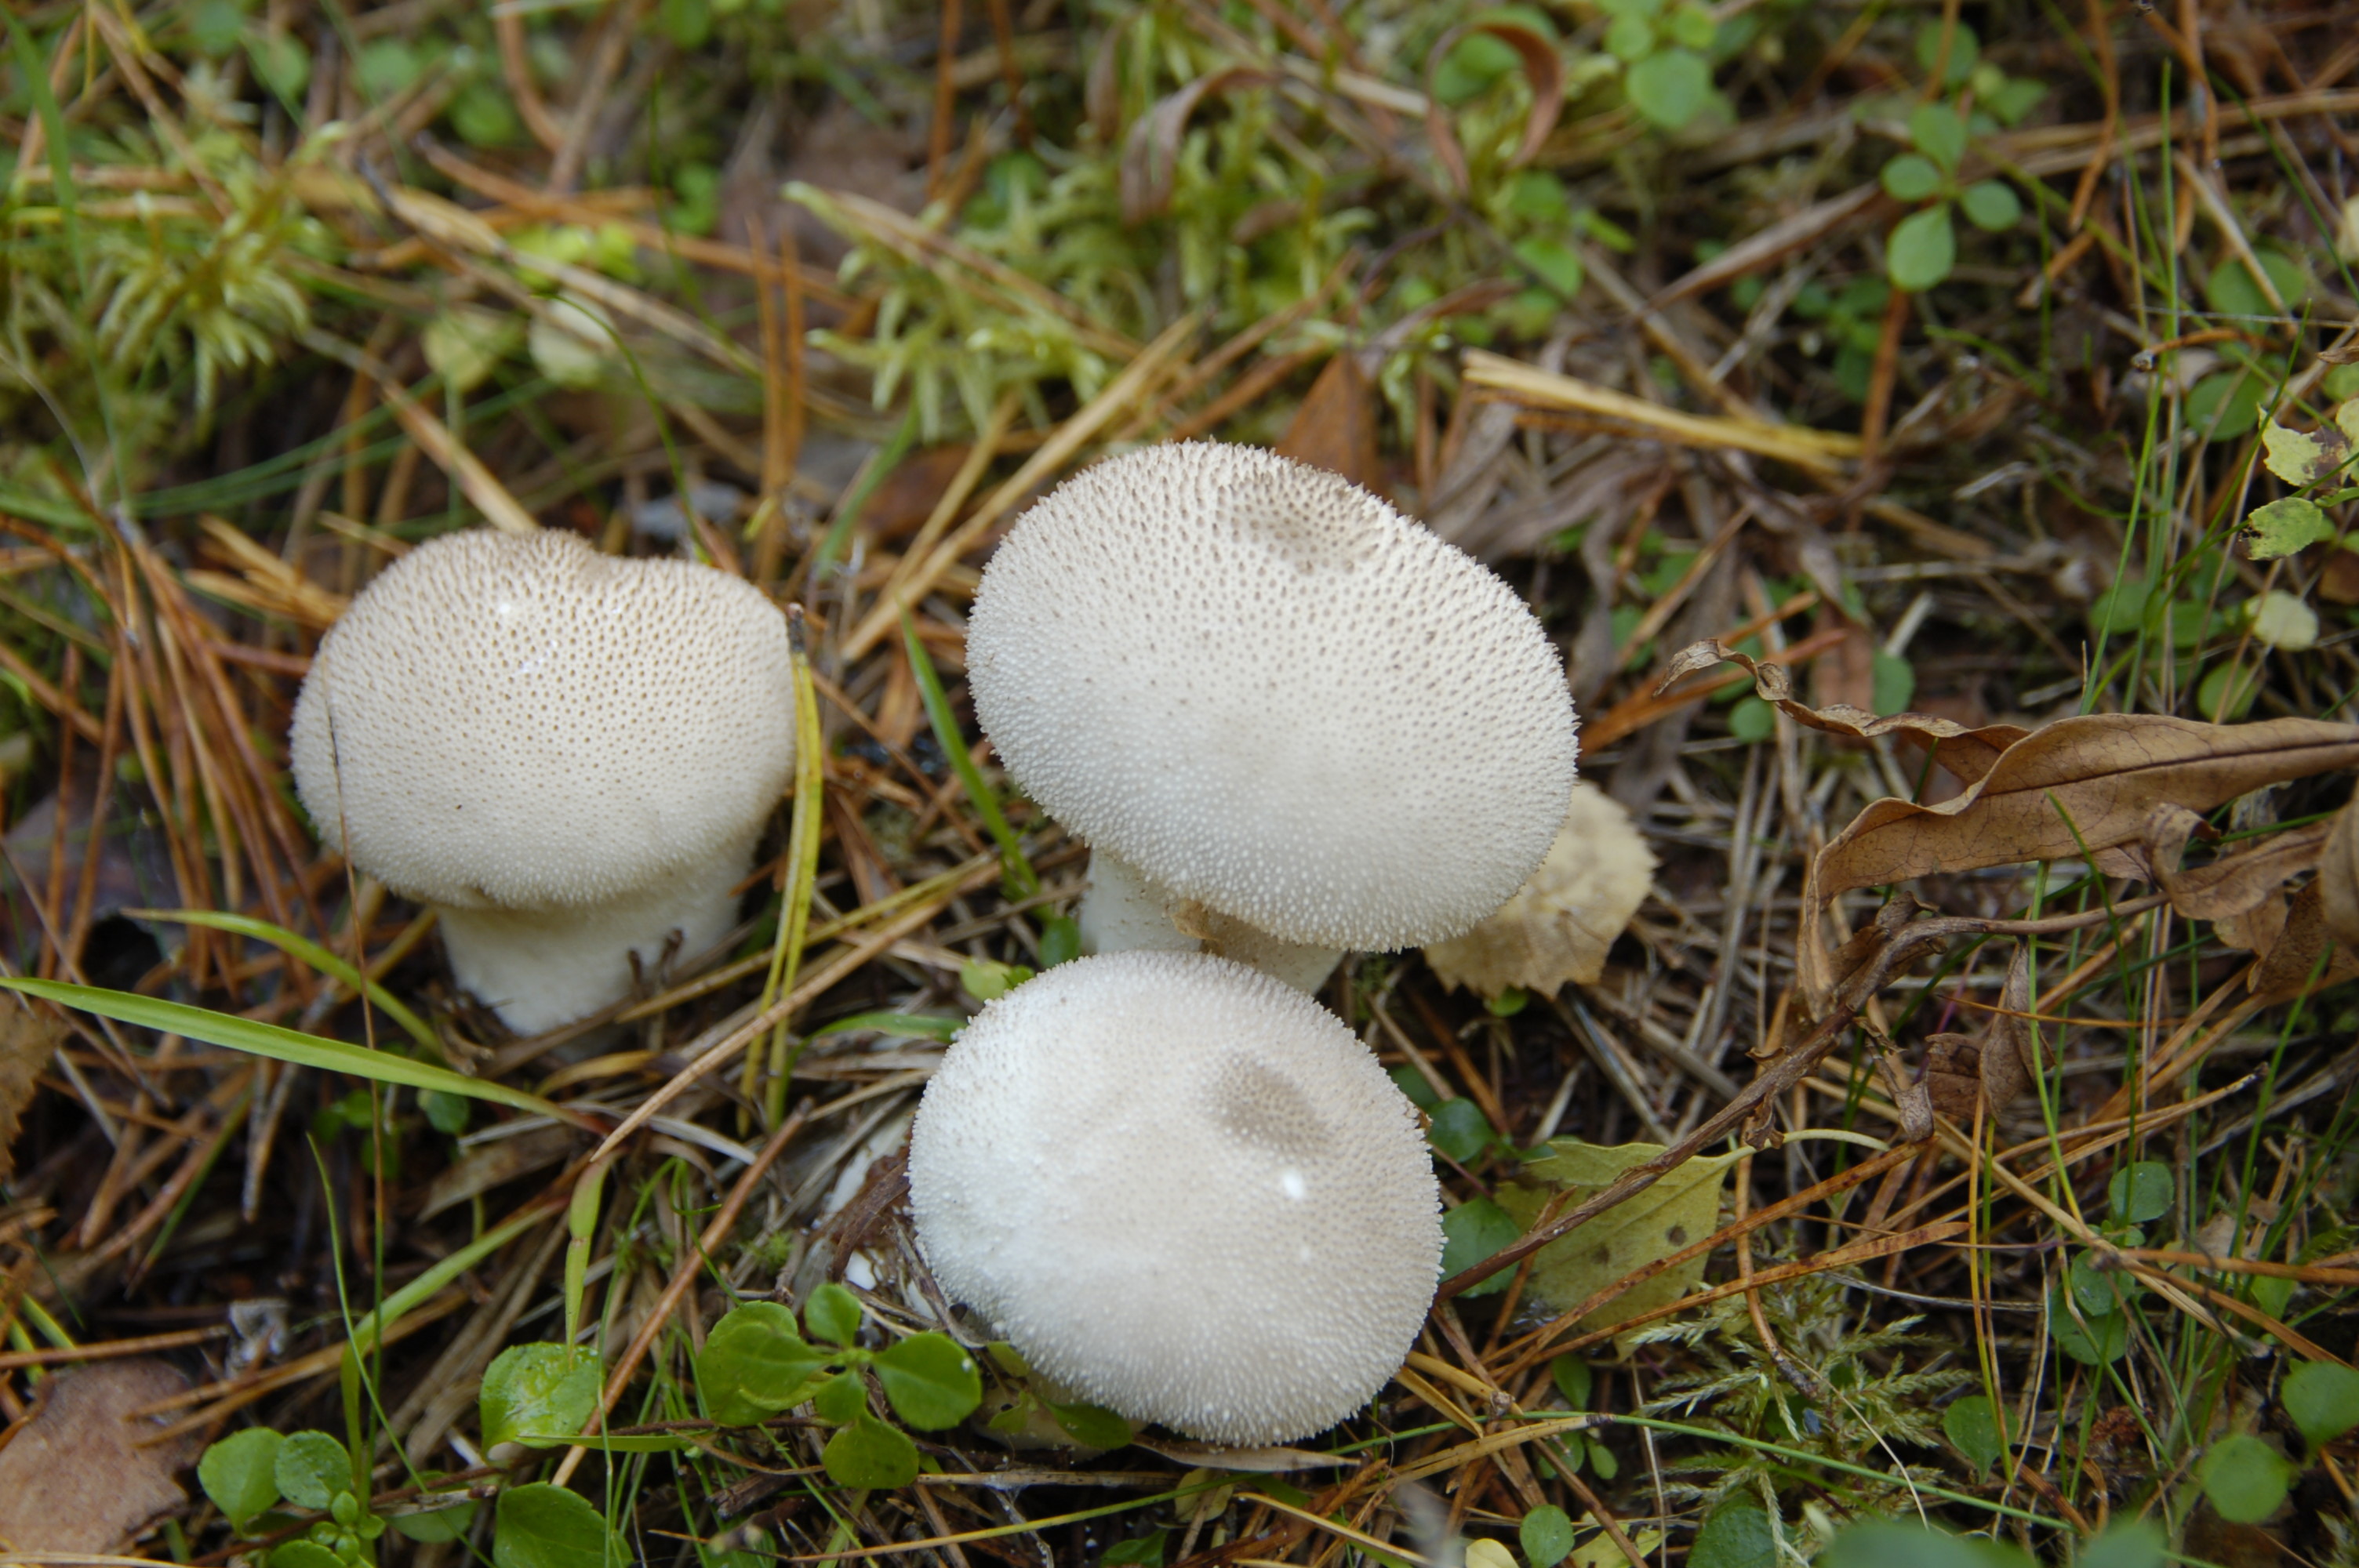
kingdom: Fungi
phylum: Basidiomycota
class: Agaricomycetes
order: Agaricales
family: Lycoperdaceae
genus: Lycoperdon
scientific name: Lycoperdon perlatum
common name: Common puffball
